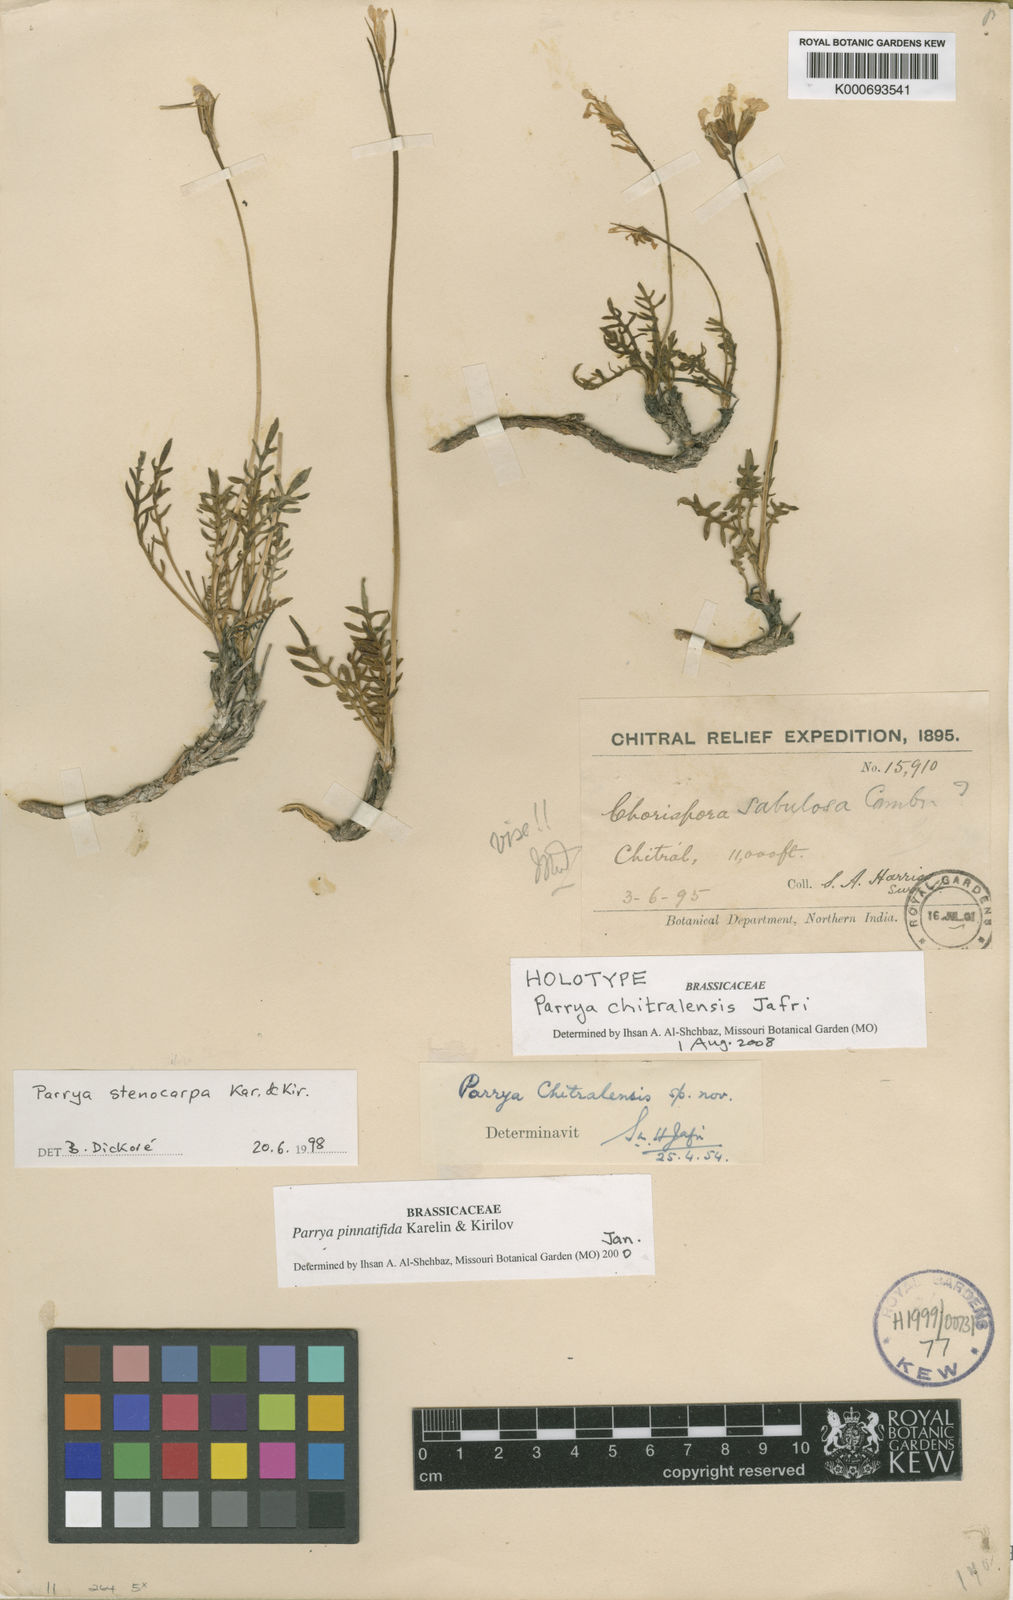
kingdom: Plantae
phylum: Tracheophyta
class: Magnoliopsida
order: Brassicales
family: Brassicaceae
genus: Parrya
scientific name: Parrya minjanensis
